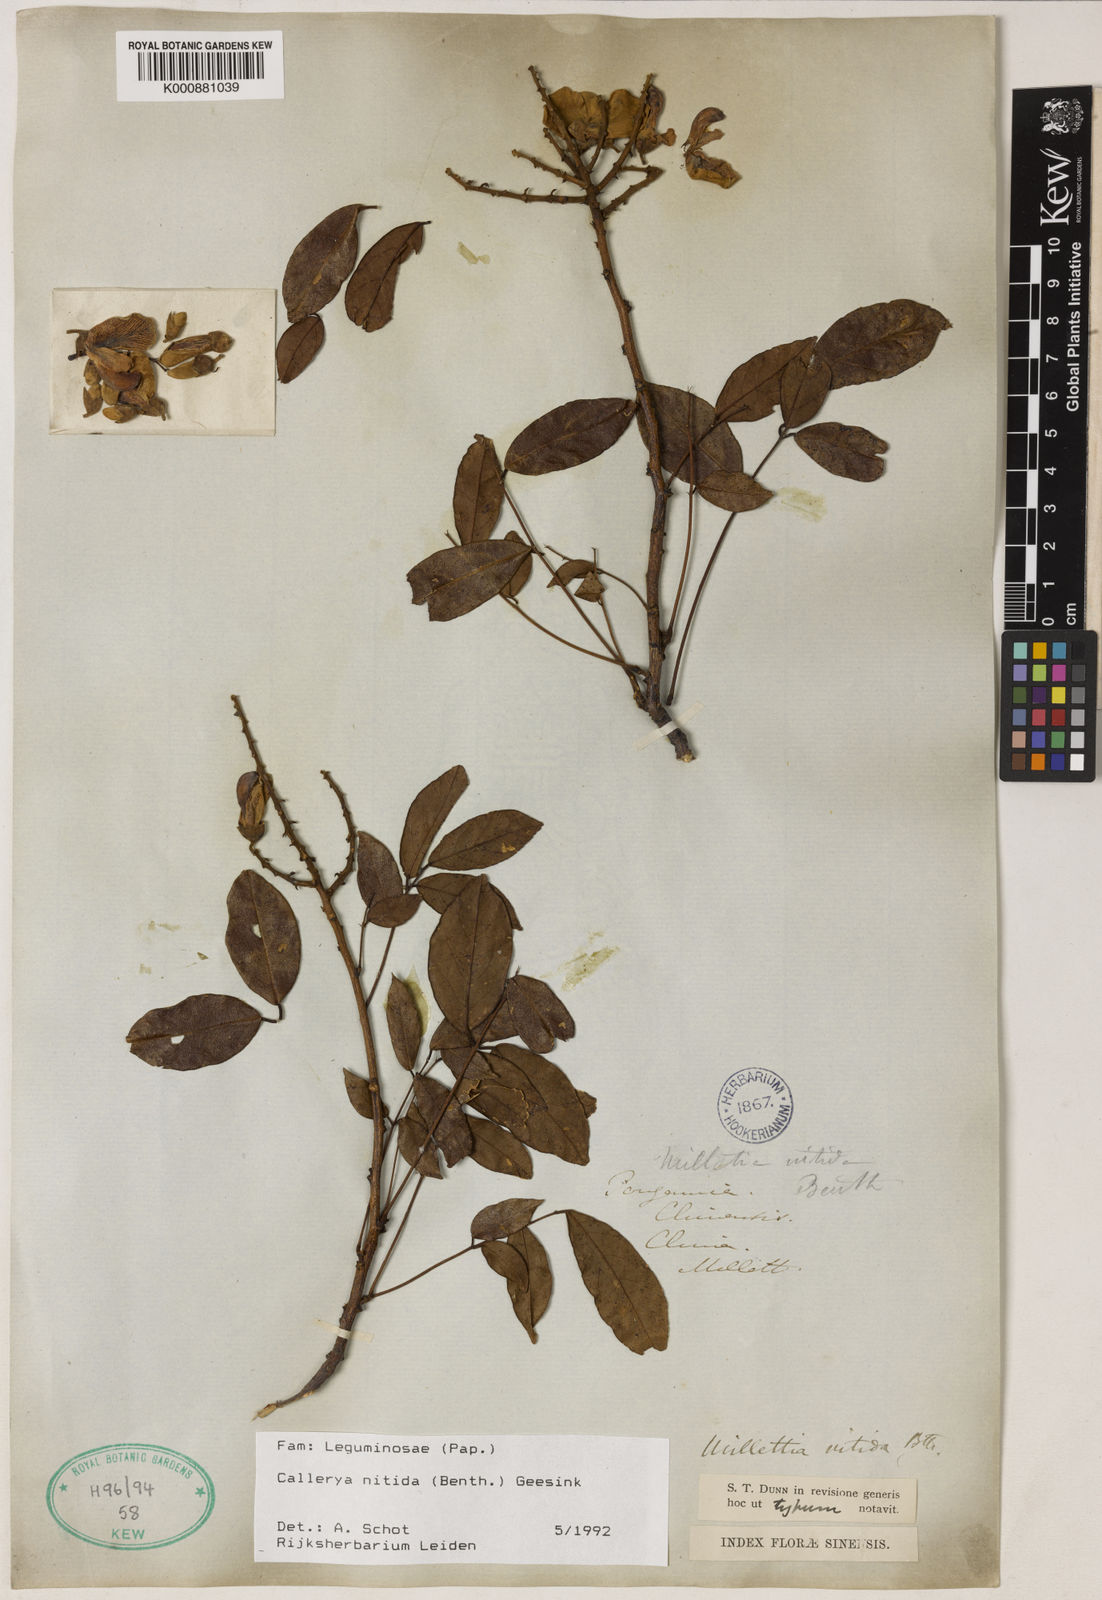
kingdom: Plantae
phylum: Tracheophyta
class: Magnoliopsida
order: Fabales
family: Fabaceae
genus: Callerya
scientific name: Callerya nitida
